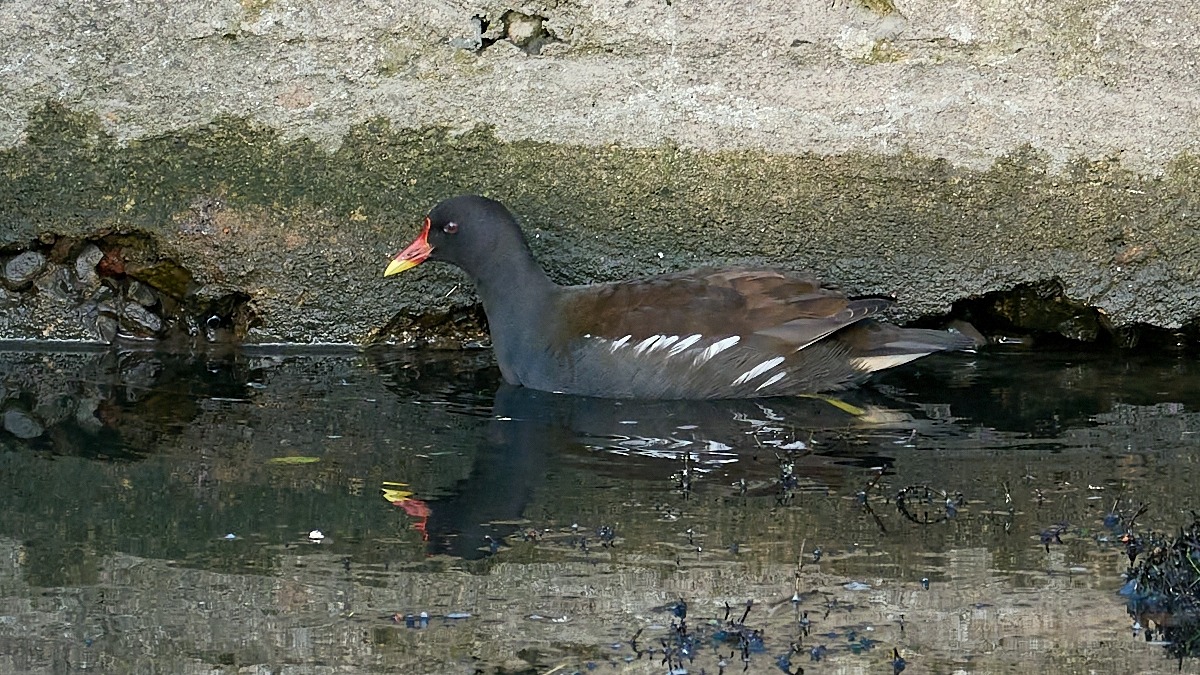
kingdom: Animalia
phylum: Chordata
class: Aves
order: Gruiformes
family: Rallidae
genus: Gallinula
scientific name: Gallinula chloropus
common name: Grønbenet rørhøne
